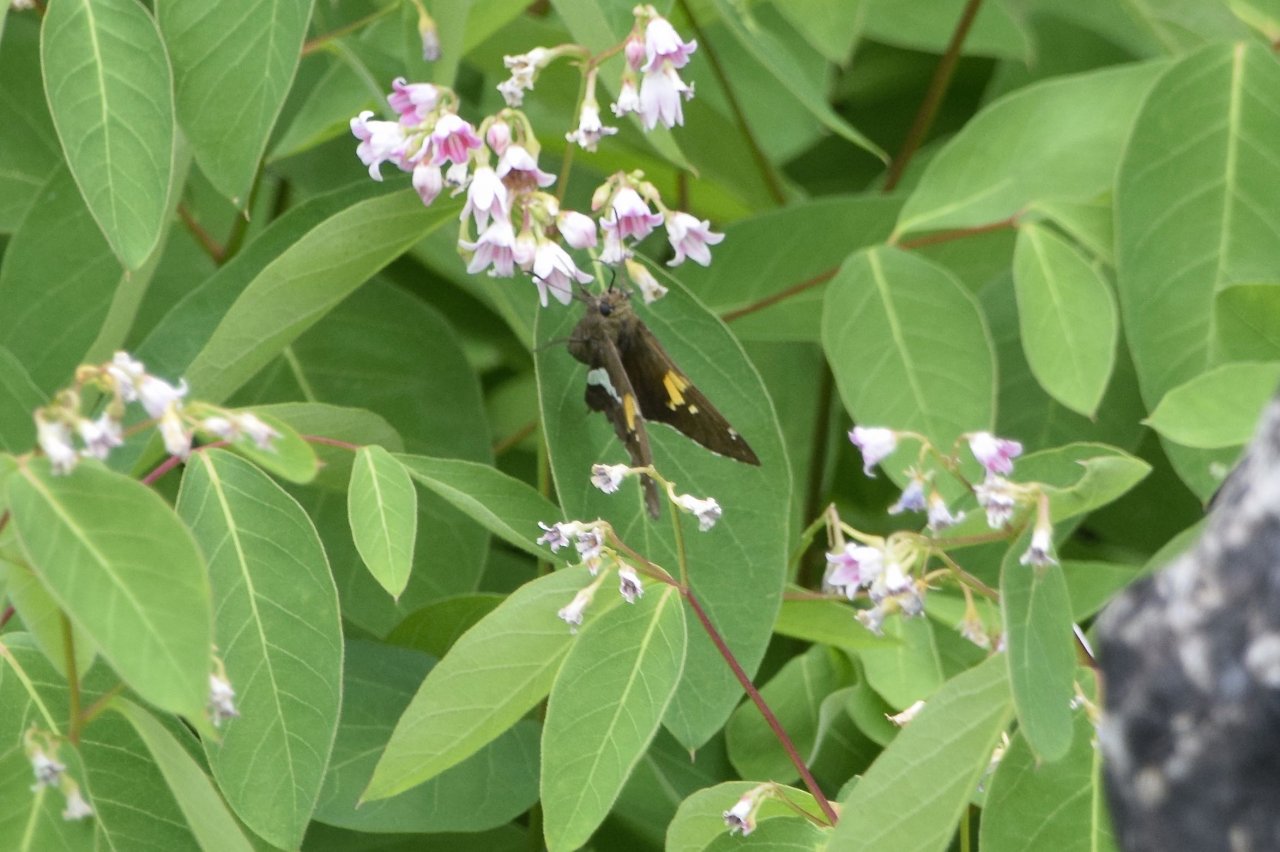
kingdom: Animalia
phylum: Arthropoda
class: Insecta
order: Lepidoptera
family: Hesperiidae
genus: Epargyreus
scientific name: Epargyreus clarus
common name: Silver-spotted Skipper
